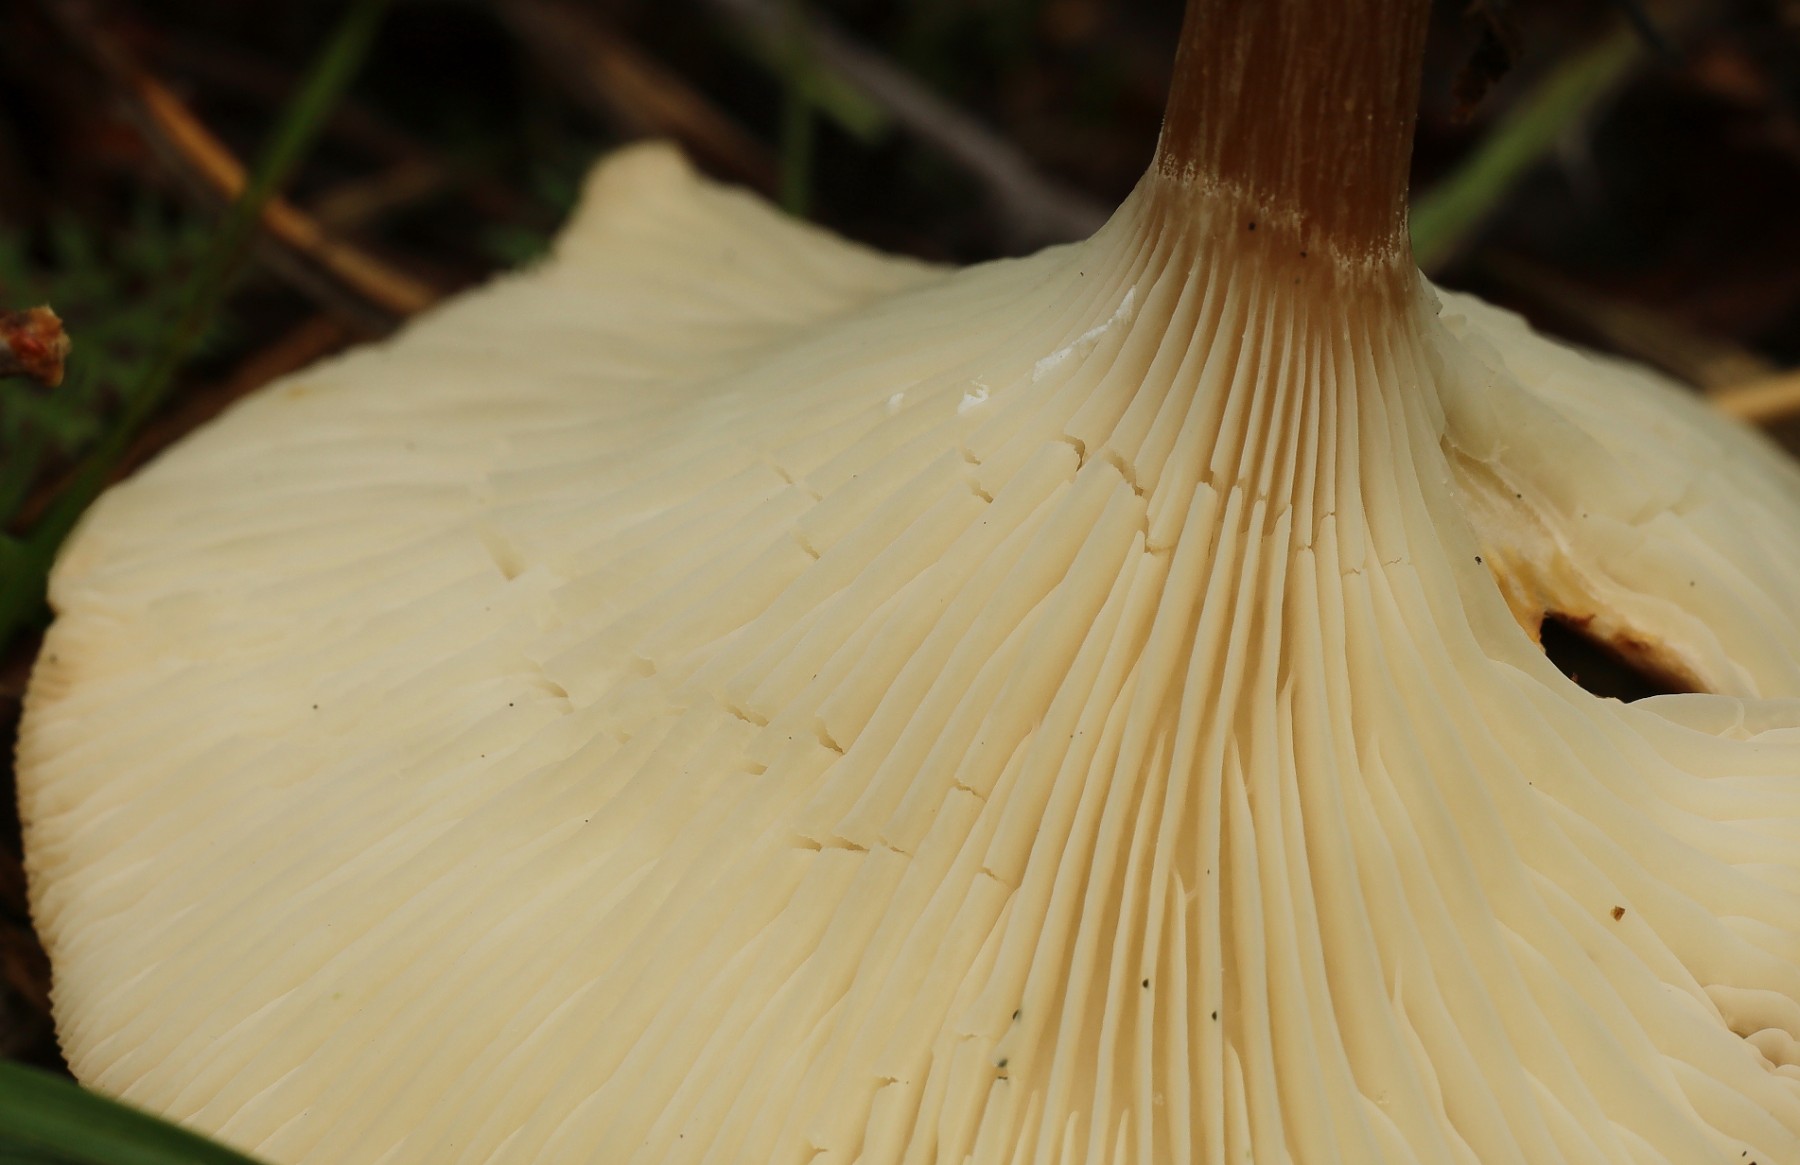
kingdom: Fungi
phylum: Basidiomycota
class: Agaricomycetes
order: Agaricales
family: Tricholomataceae
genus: Clitocybe
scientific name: Clitocybe costata
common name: brunstokket tragthat
